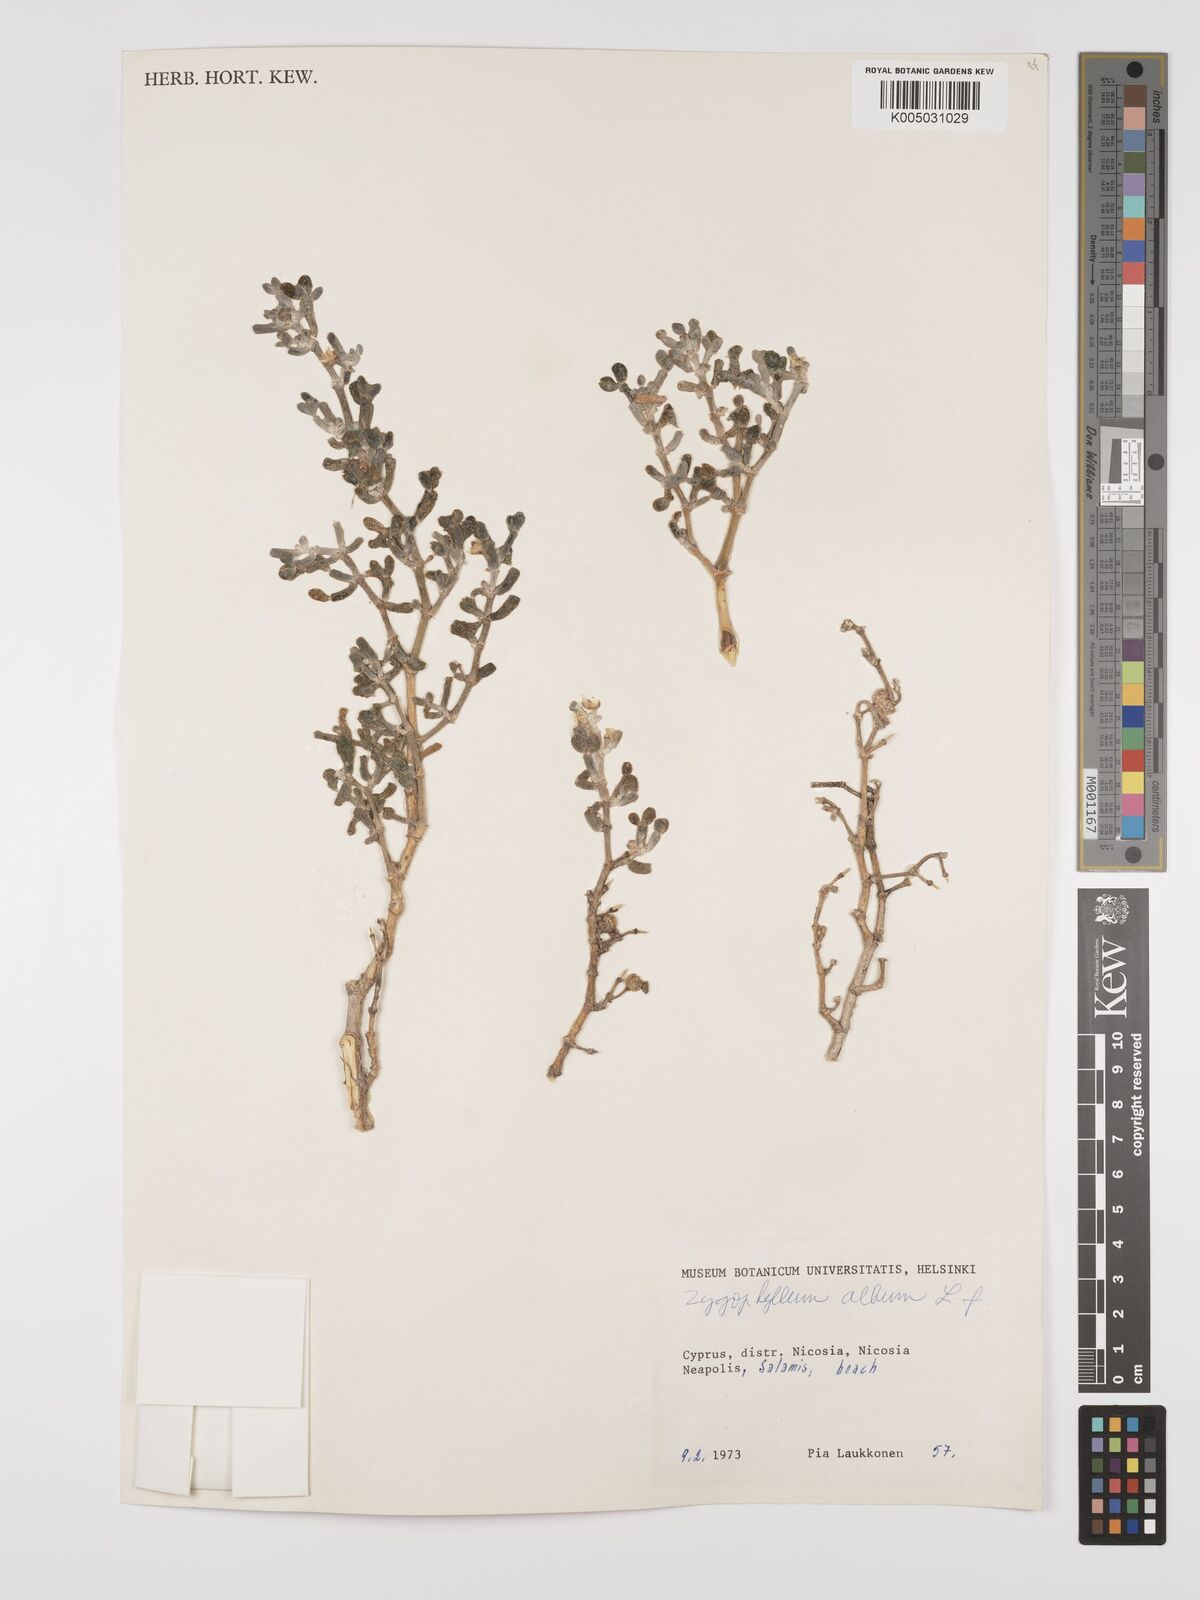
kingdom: Plantae
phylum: Tracheophyta
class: Magnoliopsida
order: Zygophyllales
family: Zygophyllaceae
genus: Zygophyllum
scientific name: Zygophyllum
